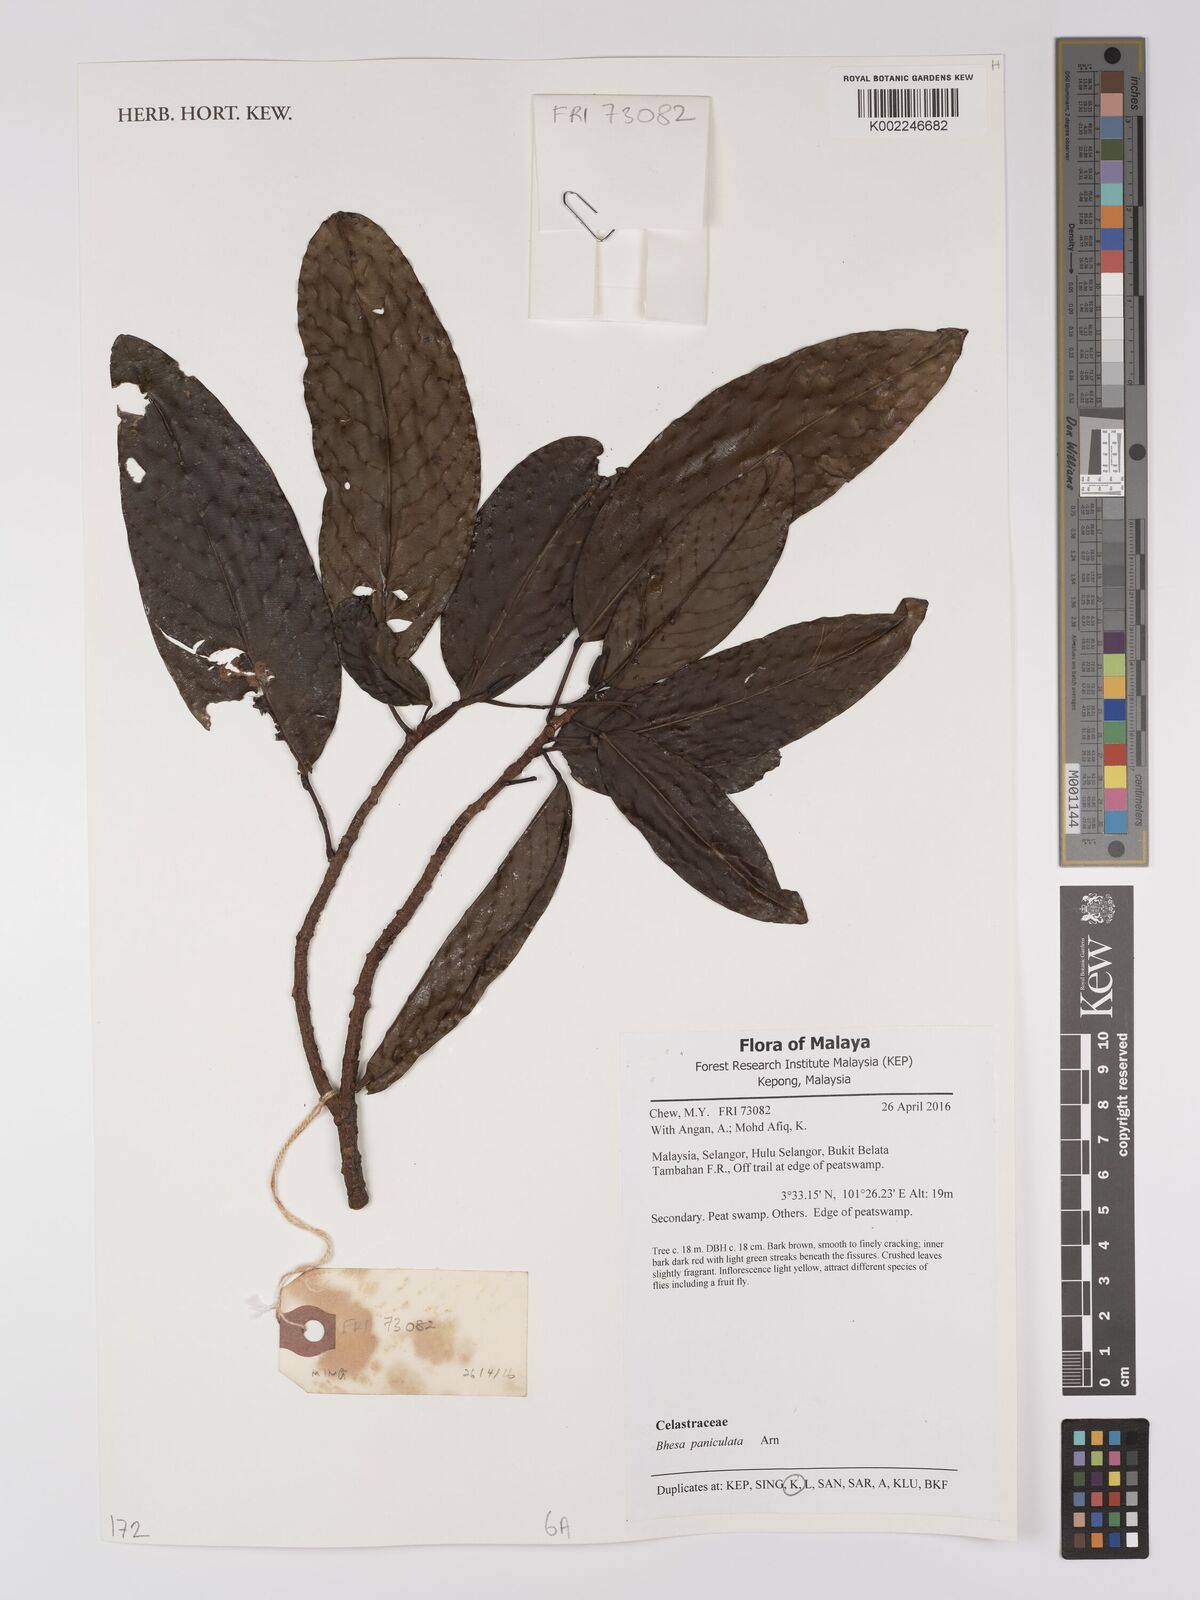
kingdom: Plantae
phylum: Tracheophyta
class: Magnoliopsida
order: Malpighiales
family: Centroplacaceae
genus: Bhesa
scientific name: Bhesa paniculata
